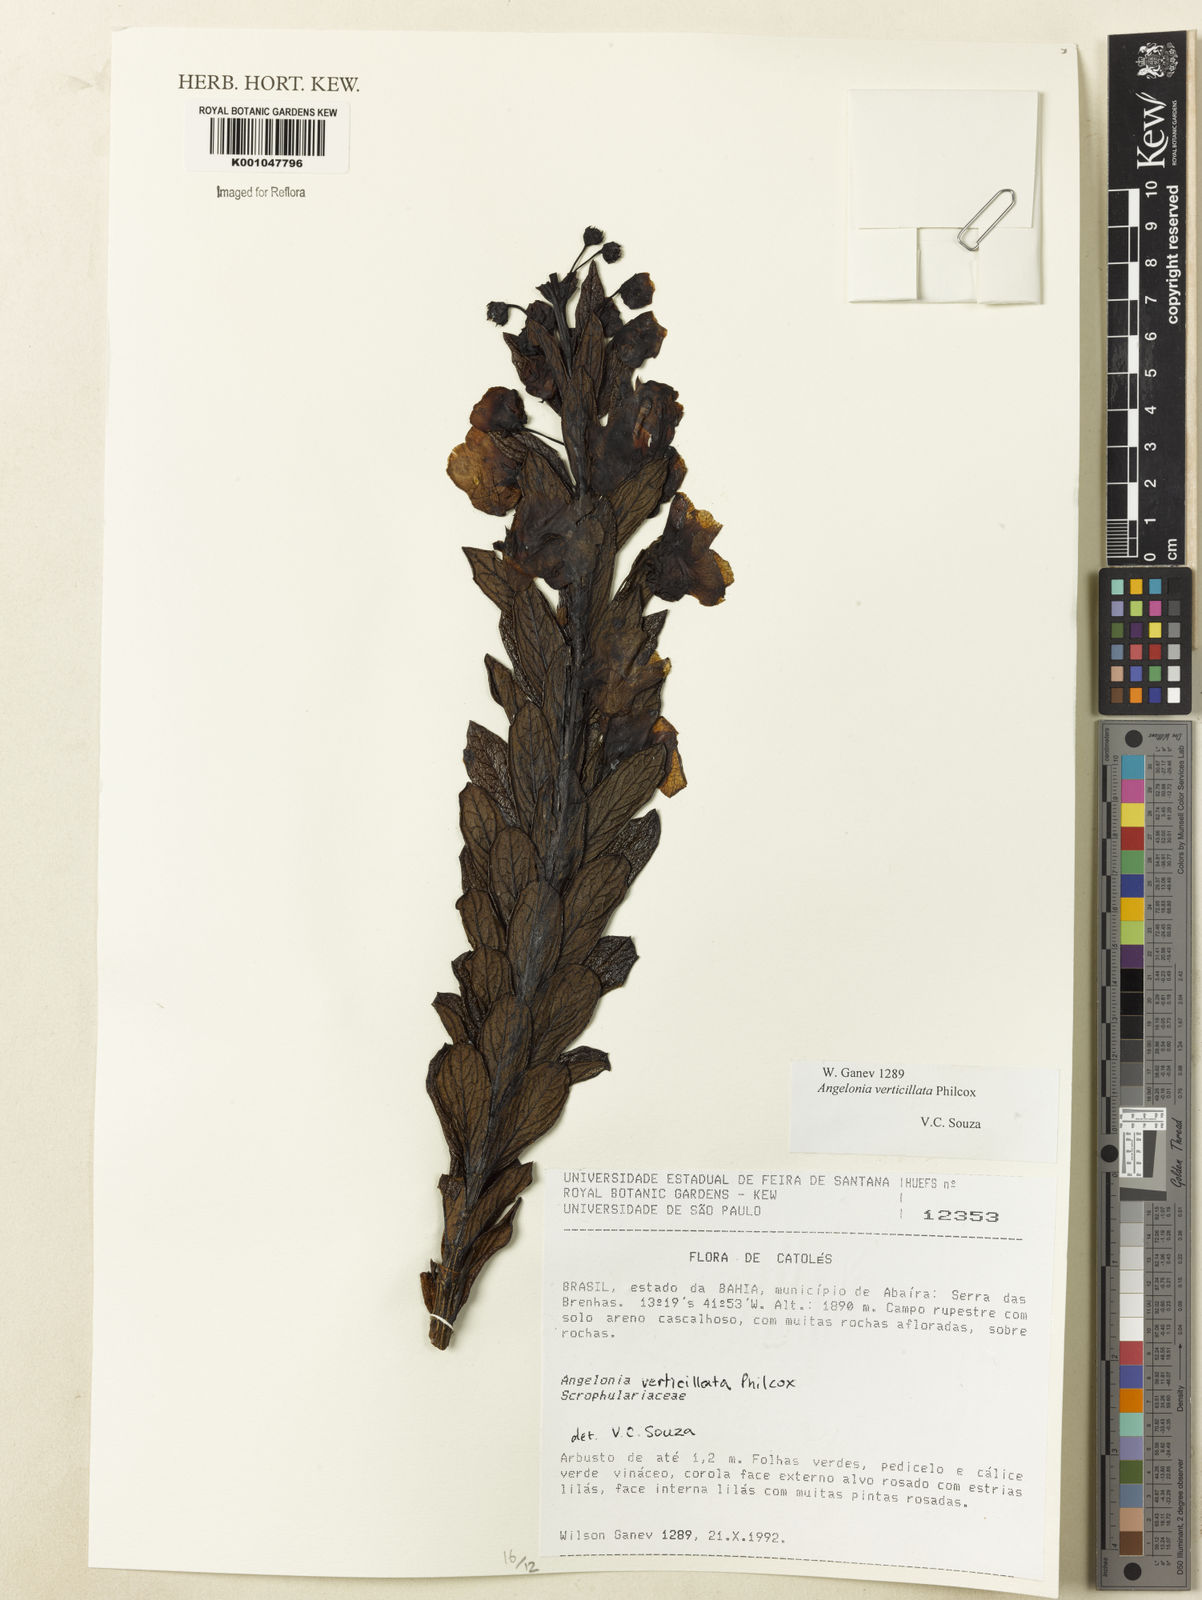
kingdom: Plantae
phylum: Tracheophyta
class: Magnoliopsida
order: Lamiales
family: Plantaginaceae
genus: Angelonia
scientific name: Angelonia verticillata
